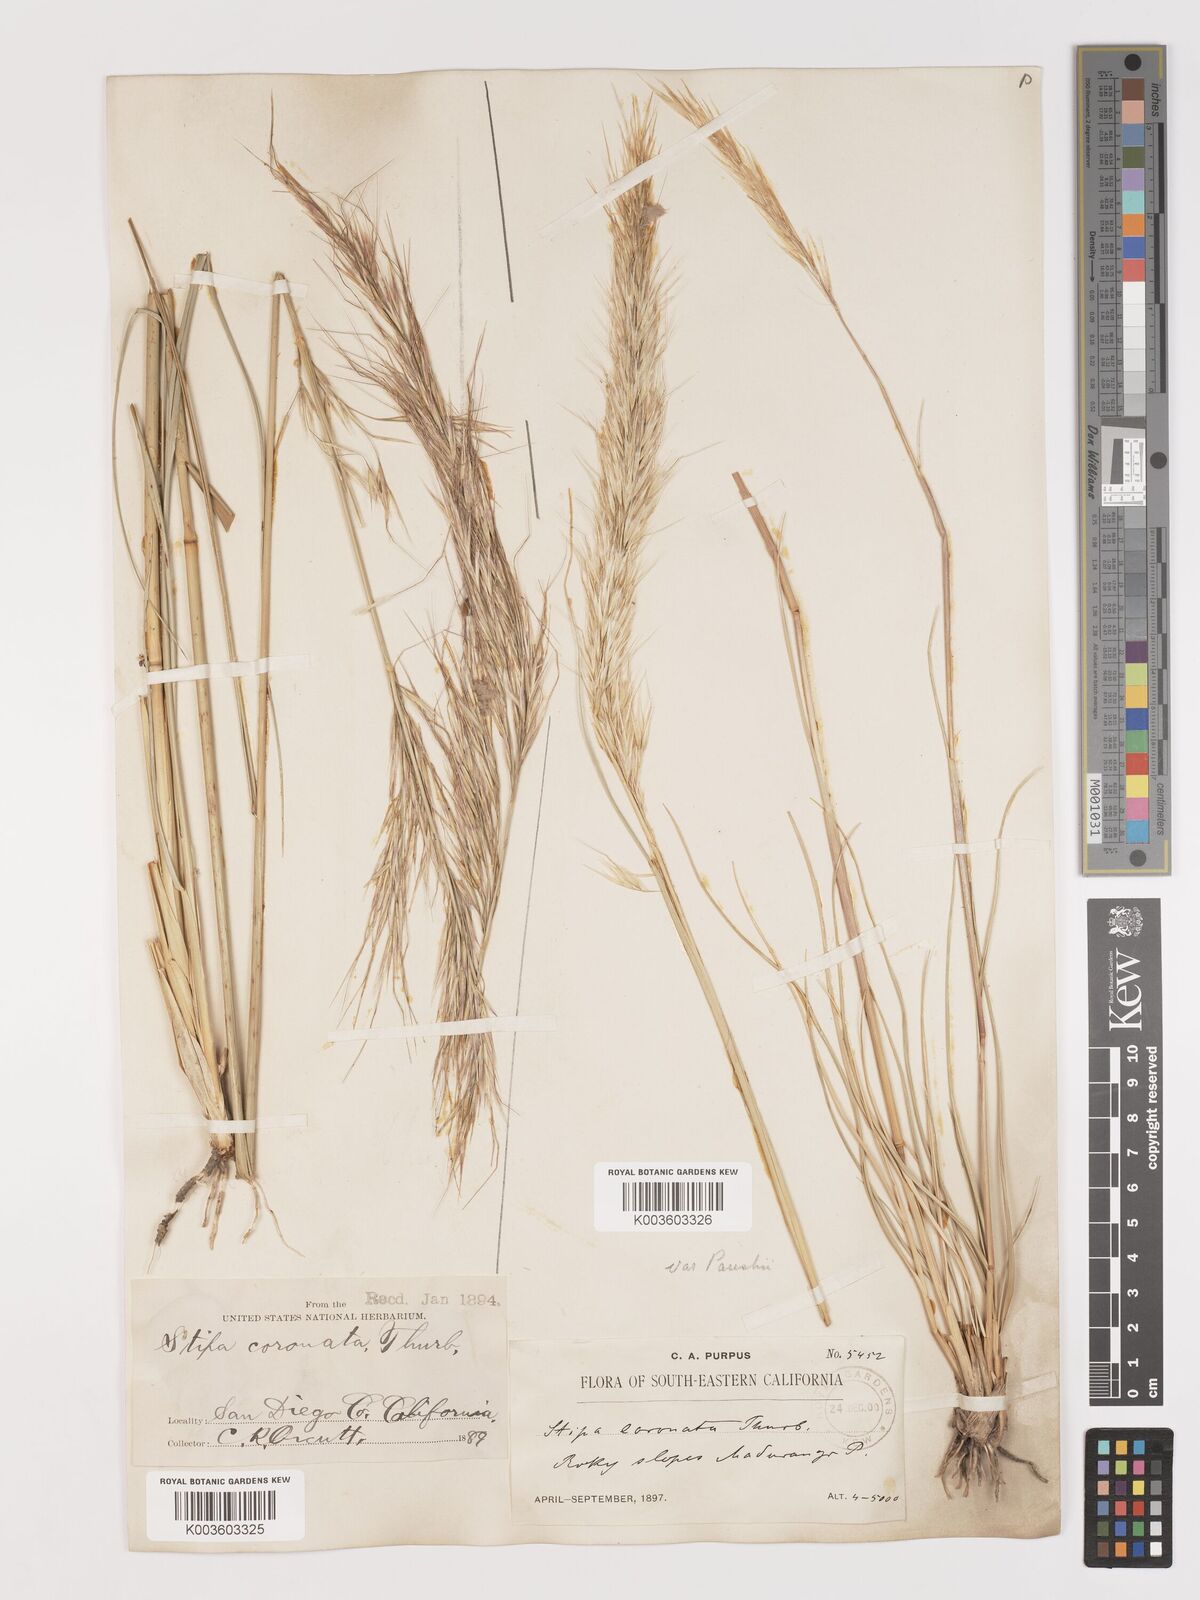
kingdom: Plantae
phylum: Tracheophyta
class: Liliopsida
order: Poales
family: Poaceae
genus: Hesperostipa
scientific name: Hesperostipa comata
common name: Needle-and-thread grass
